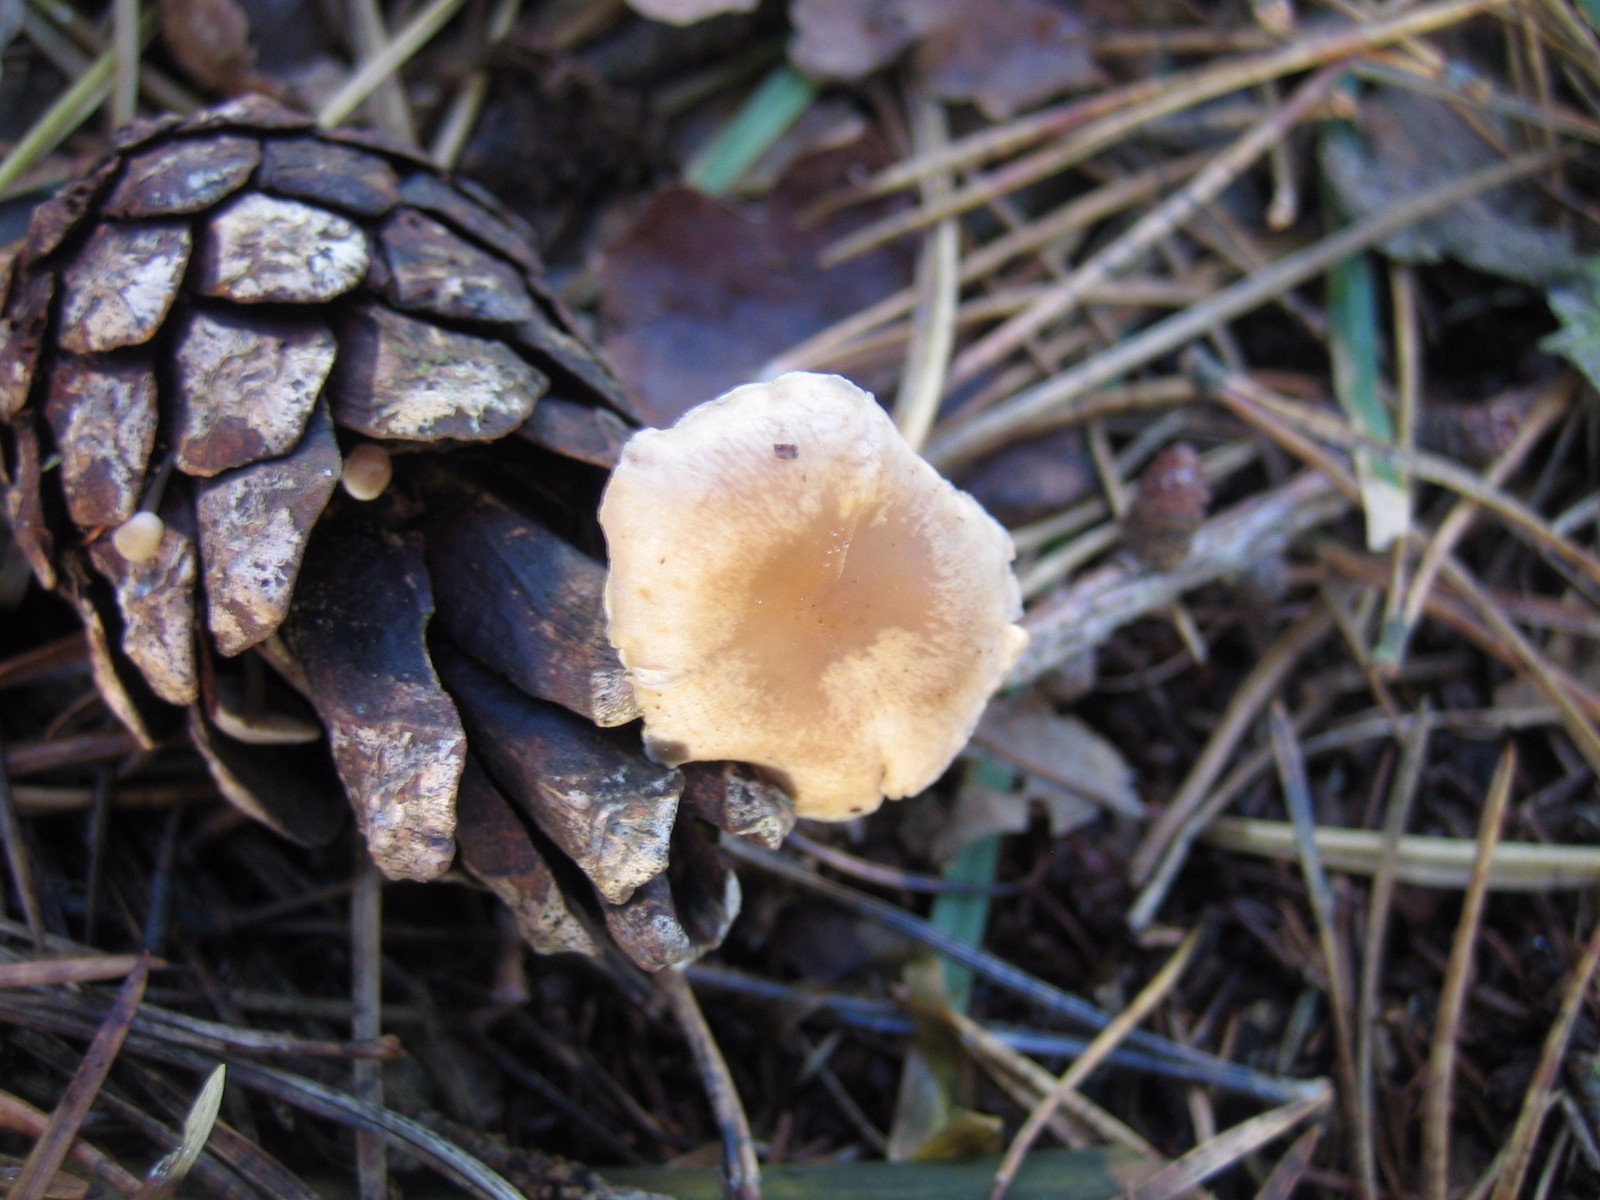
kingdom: Fungi
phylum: Basidiomycota
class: Agaricomycetes
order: Agaricales
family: Marasmiaceae
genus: Baeospora
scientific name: Baeospora myosura
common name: koglebruskhat
